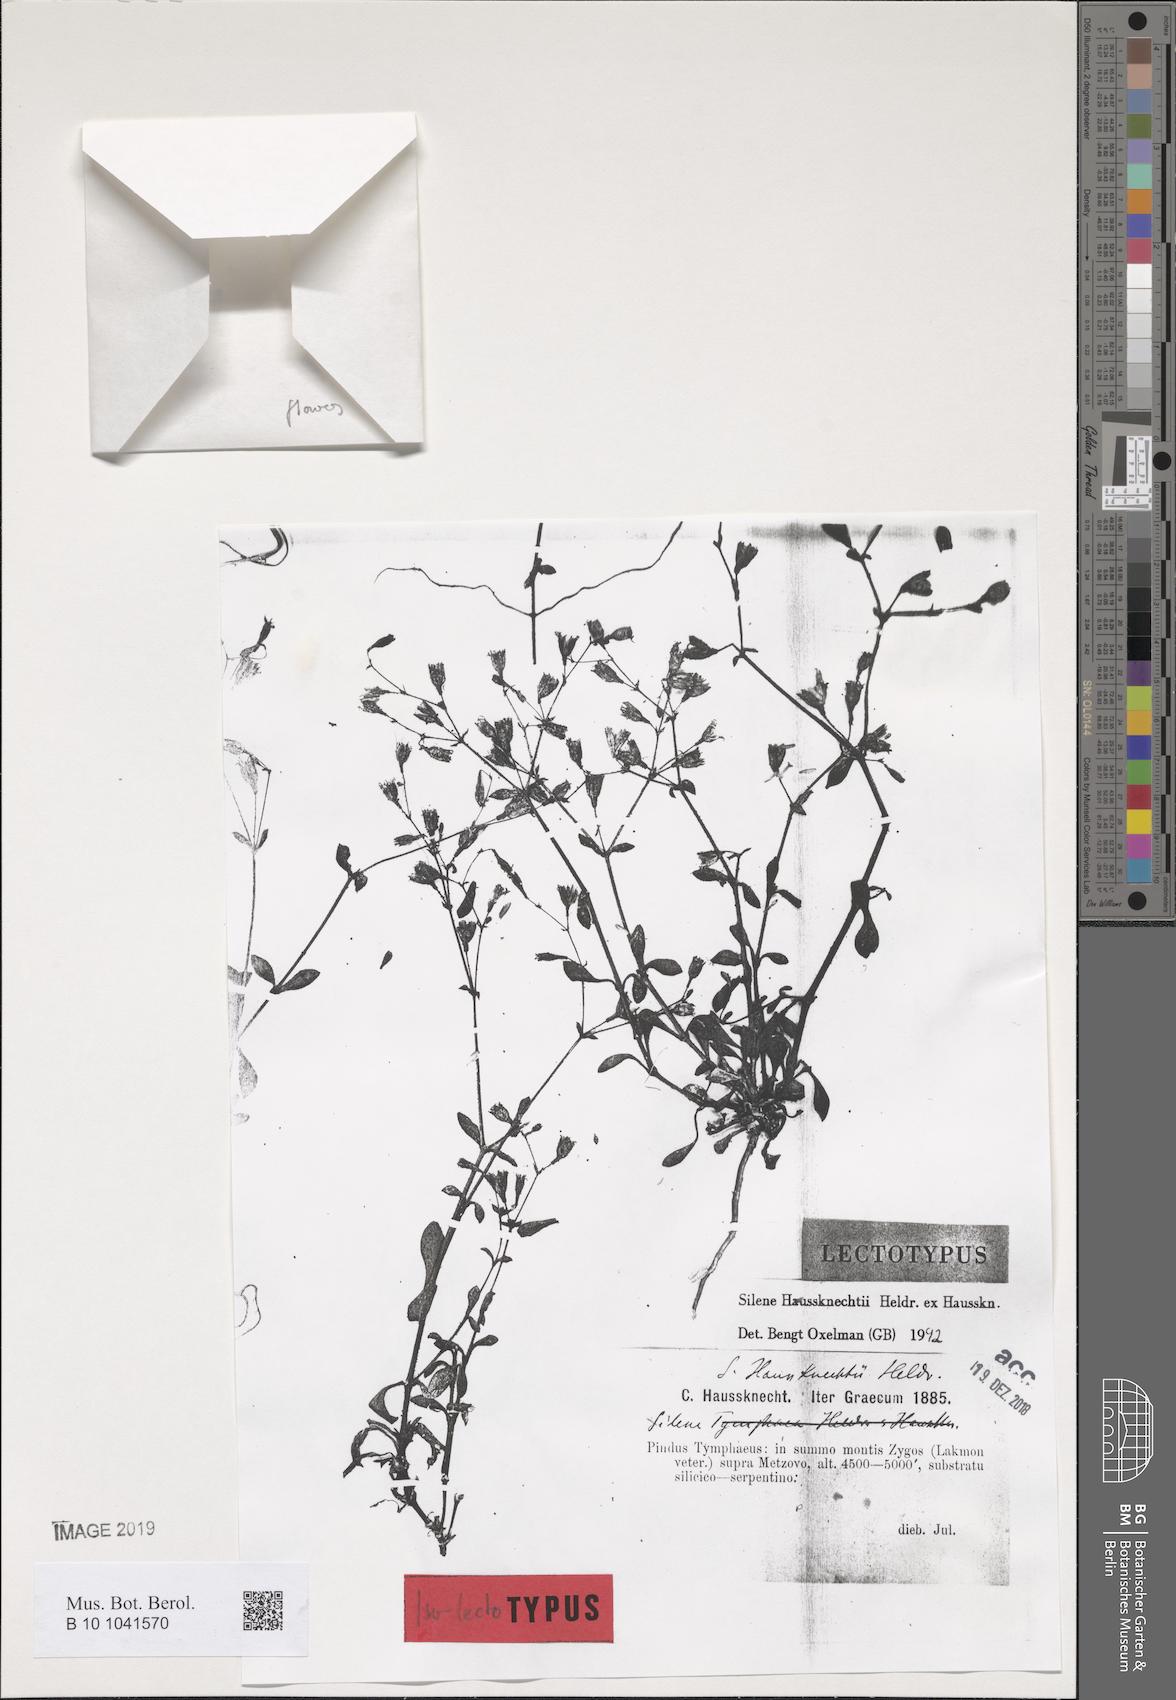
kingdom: Plantae
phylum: Tracheophyta
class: Magnoliopsida
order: Caryophyllales
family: Caryophyllaceae
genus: Silene
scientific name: Silene haussknechtii
